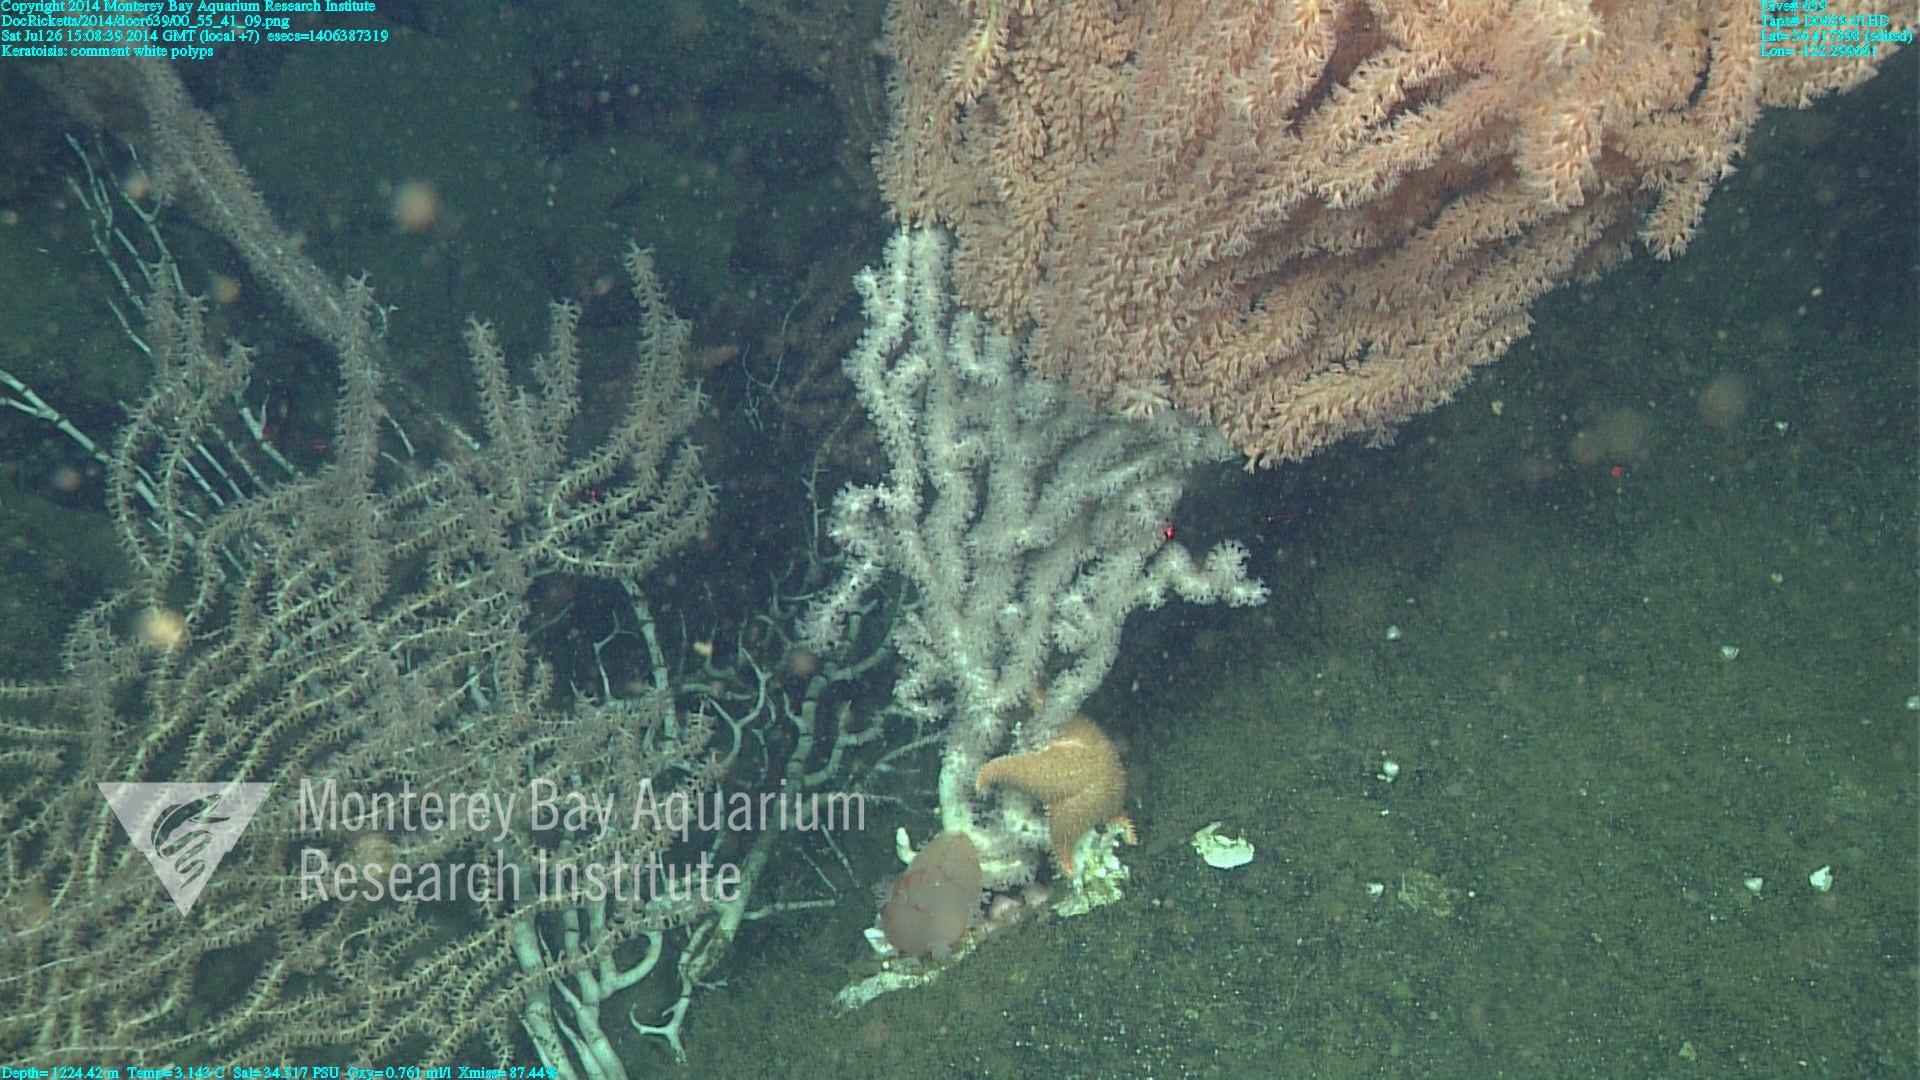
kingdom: Animalia
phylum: Cnidaria
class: Anthozoa
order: Scleralcyonacea
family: Keratoisididae
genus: Keratoisis
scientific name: Keratoisis
